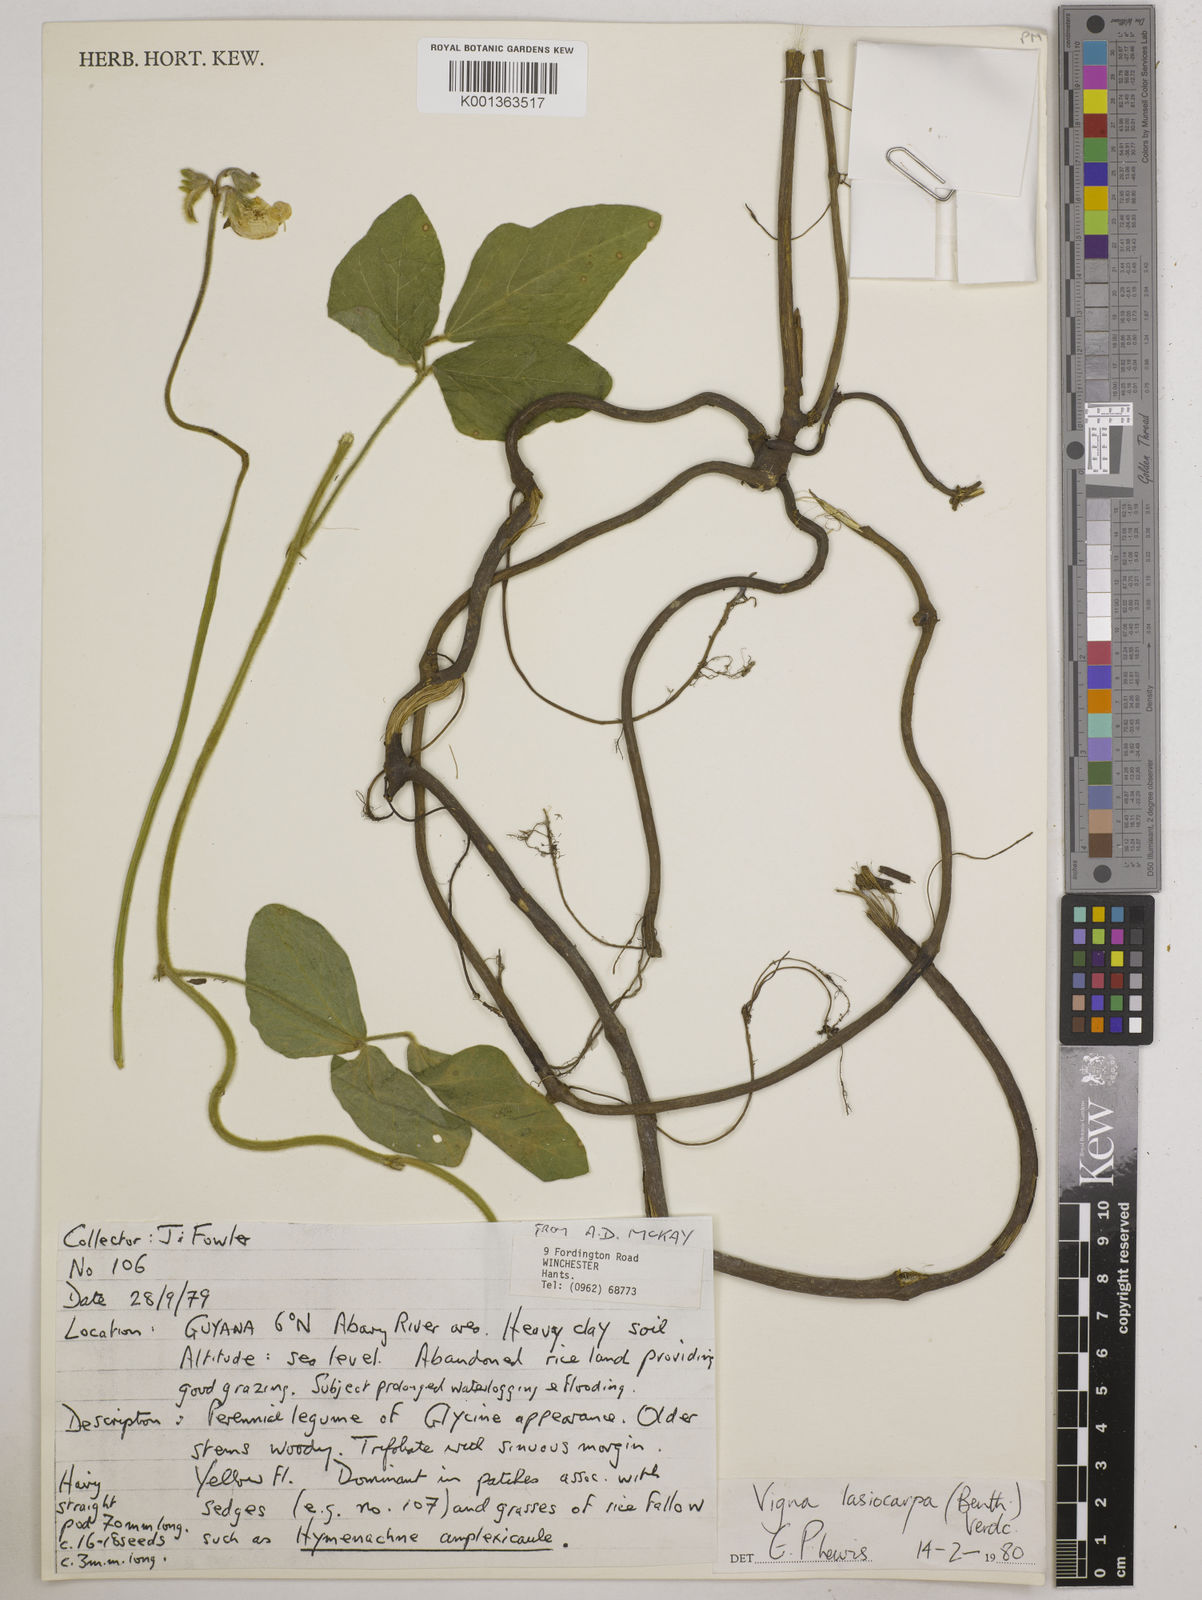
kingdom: Plantae
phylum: Tracheophyta
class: Magnoliopsida
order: Fabales
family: Fabaceae
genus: Vigna
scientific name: Vigna lasiocarpa
